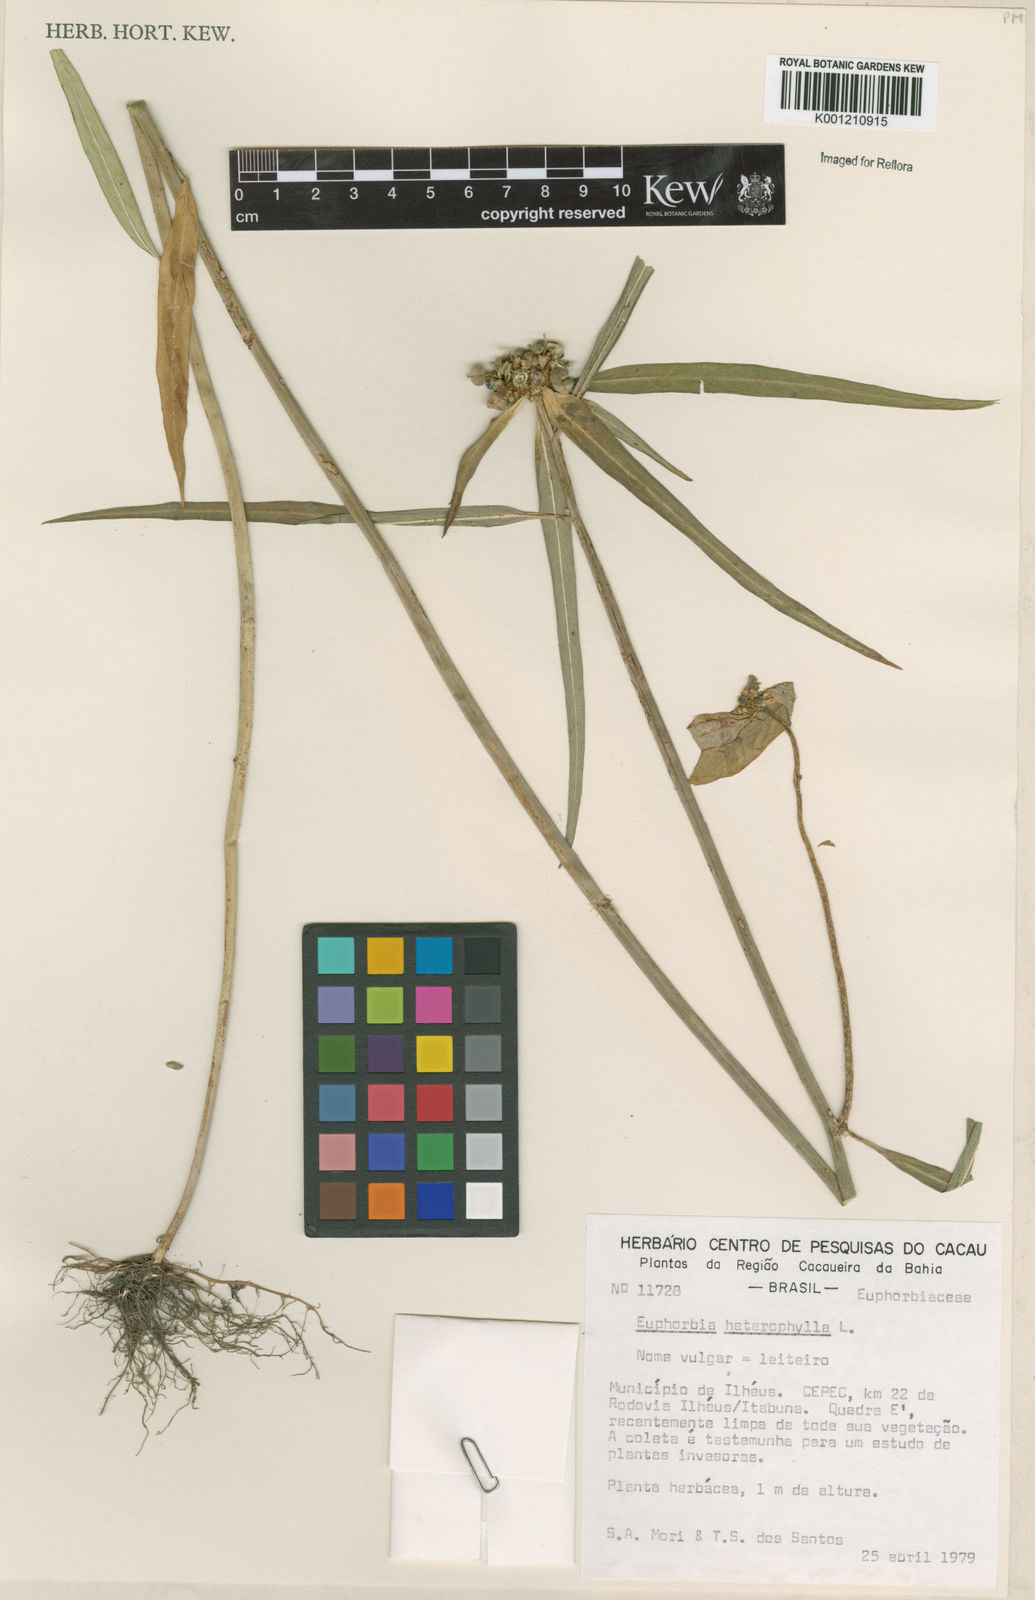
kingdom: Plantae
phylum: Tracheophyta
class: Magnoliopsida
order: Malpighiales
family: Euphorbiaceae
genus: Euphorbia
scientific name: Euphorbia heterophylla
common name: Mexican fireplant
